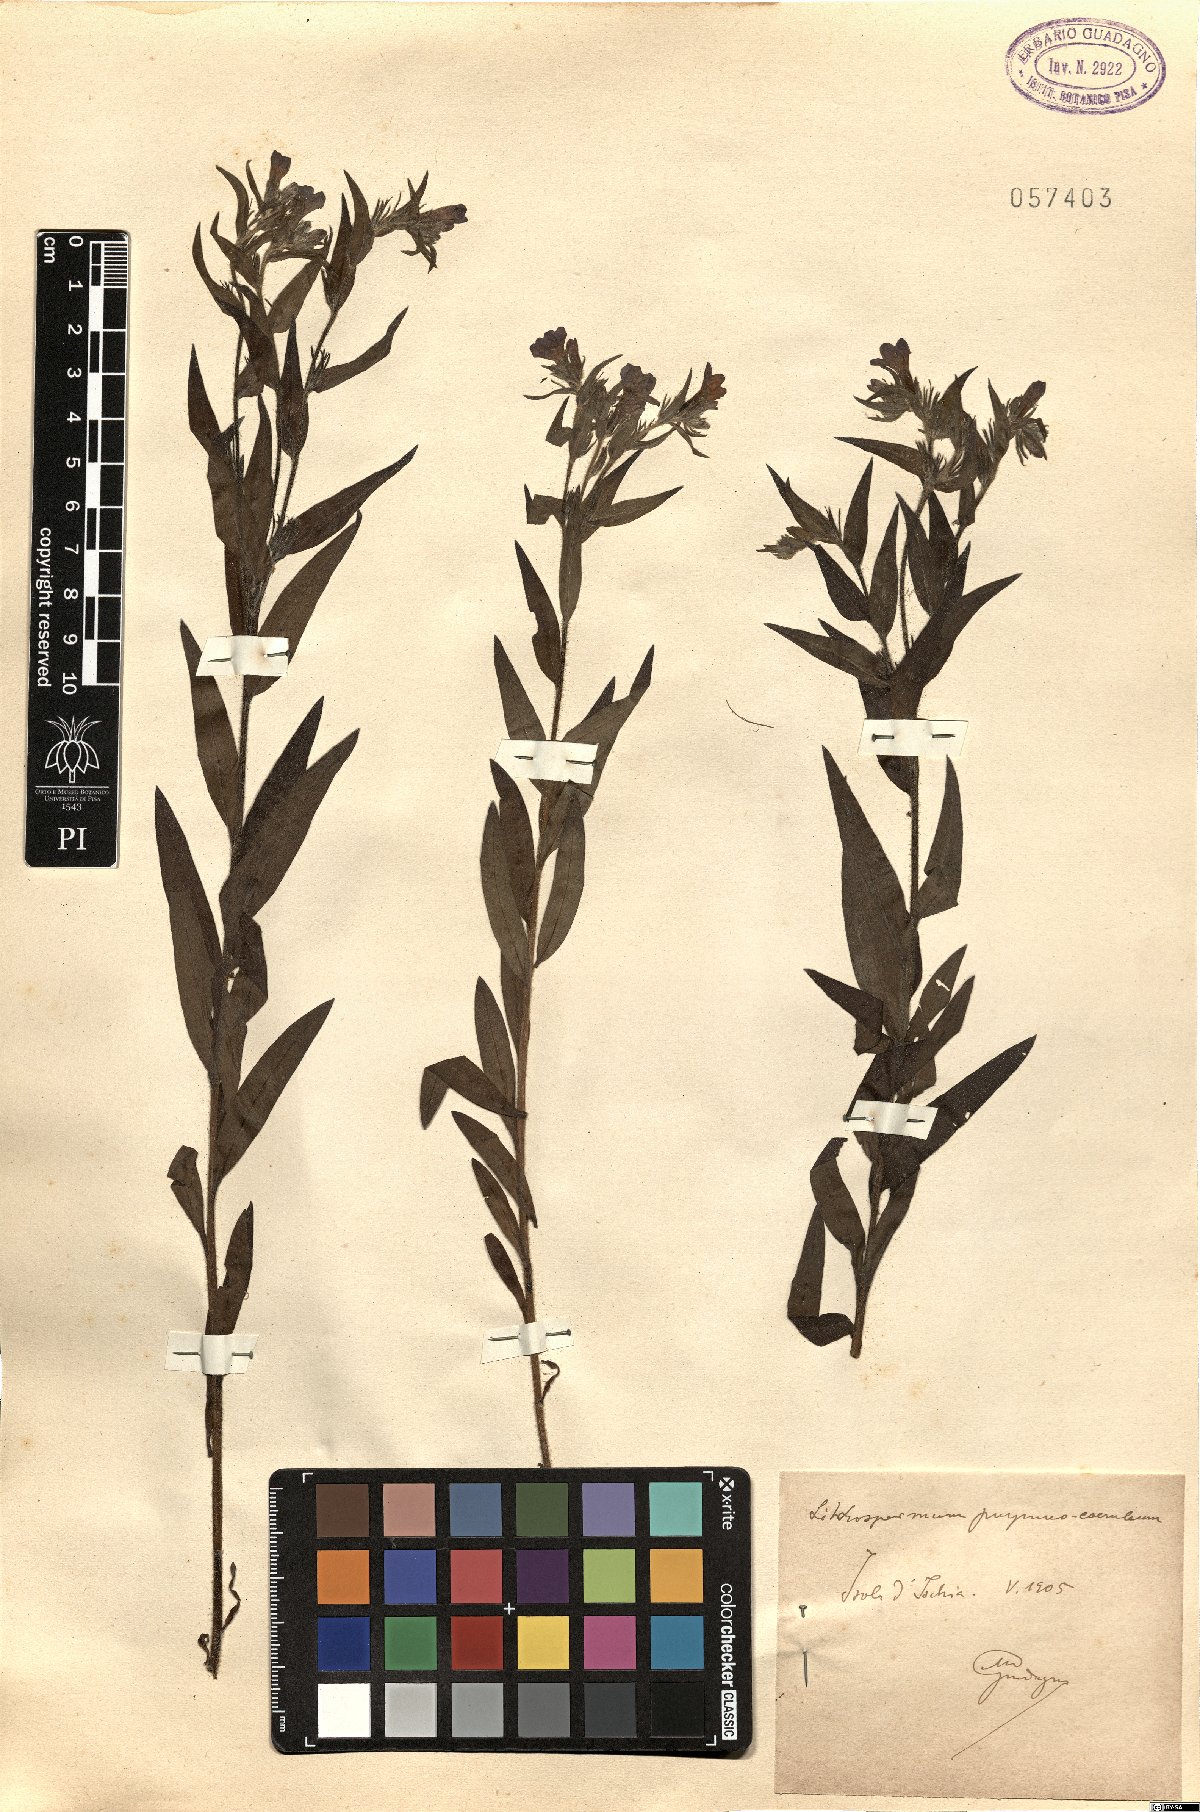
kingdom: Plantae
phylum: Tracheophyta
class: Magnoliopsida
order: Boraginales
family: Boraginaceae
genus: Aegonychon
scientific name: Aegonychon purpurocaeruleum
